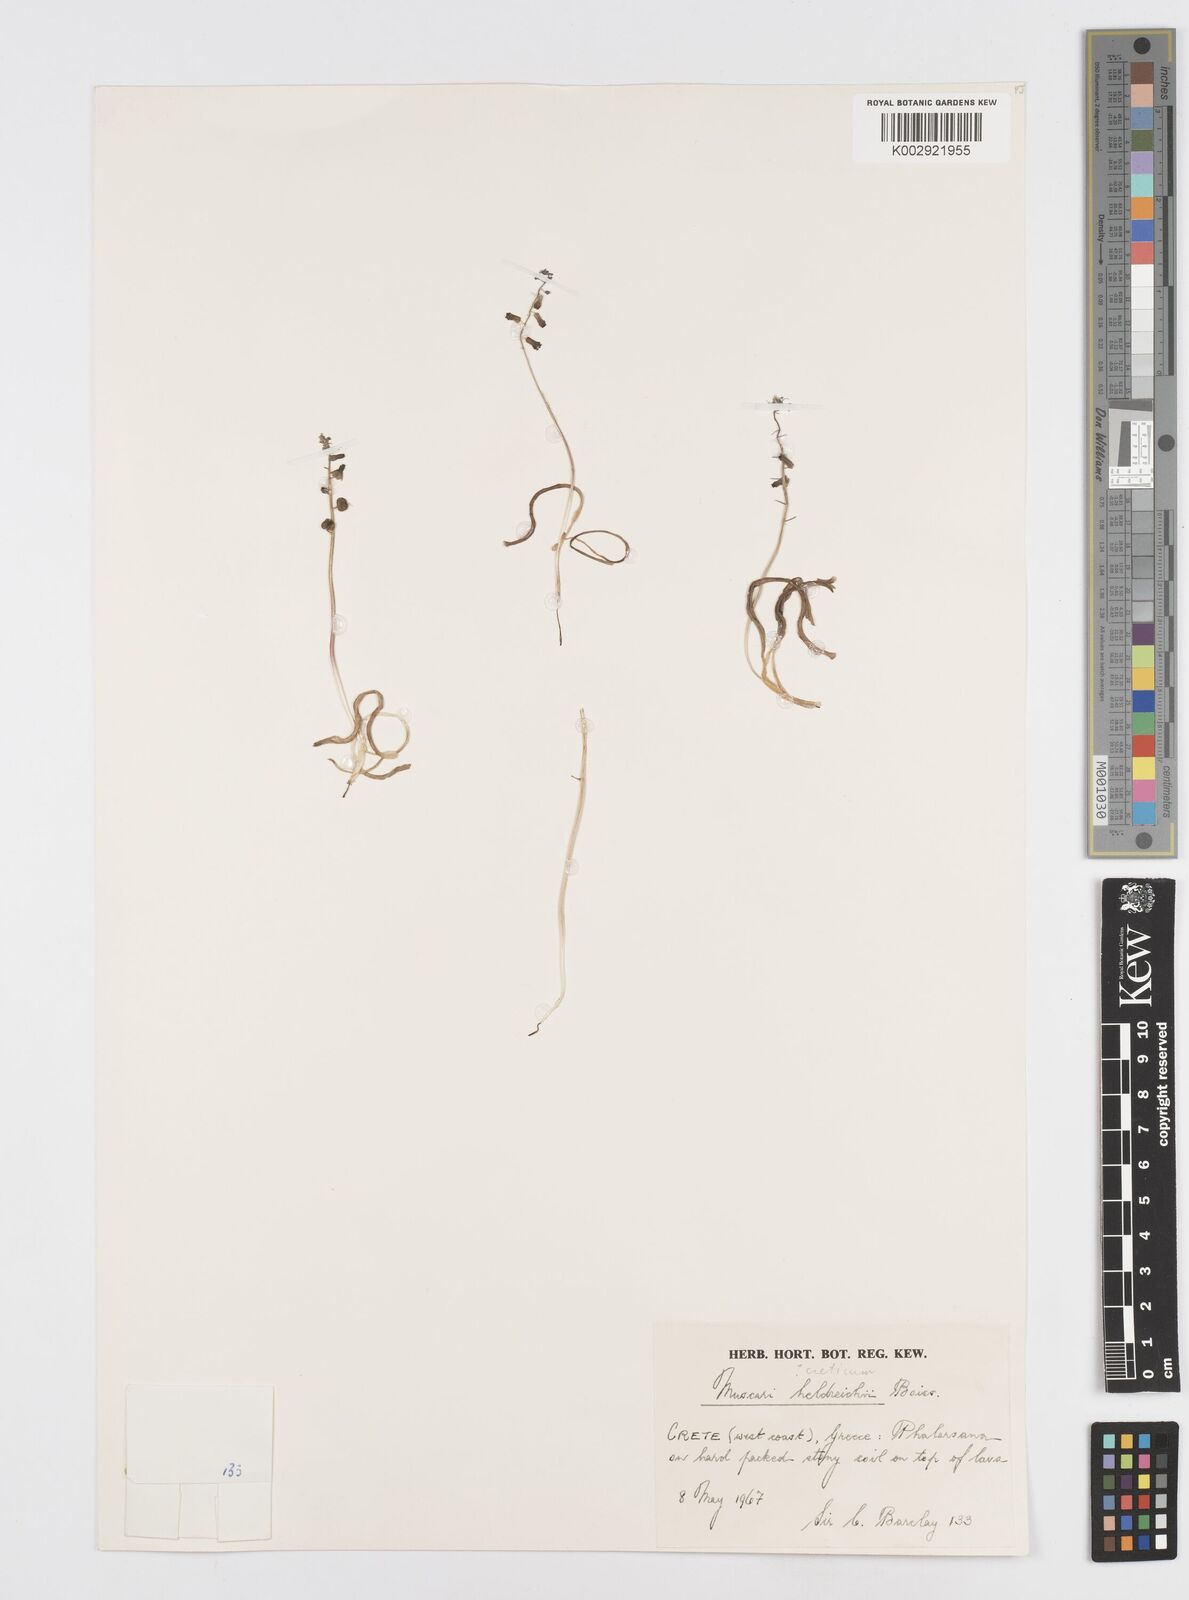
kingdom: Animalia
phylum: Mollusca
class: Cephalopoda
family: Neocomitidae
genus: Leopoldia
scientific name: Leopoldia
